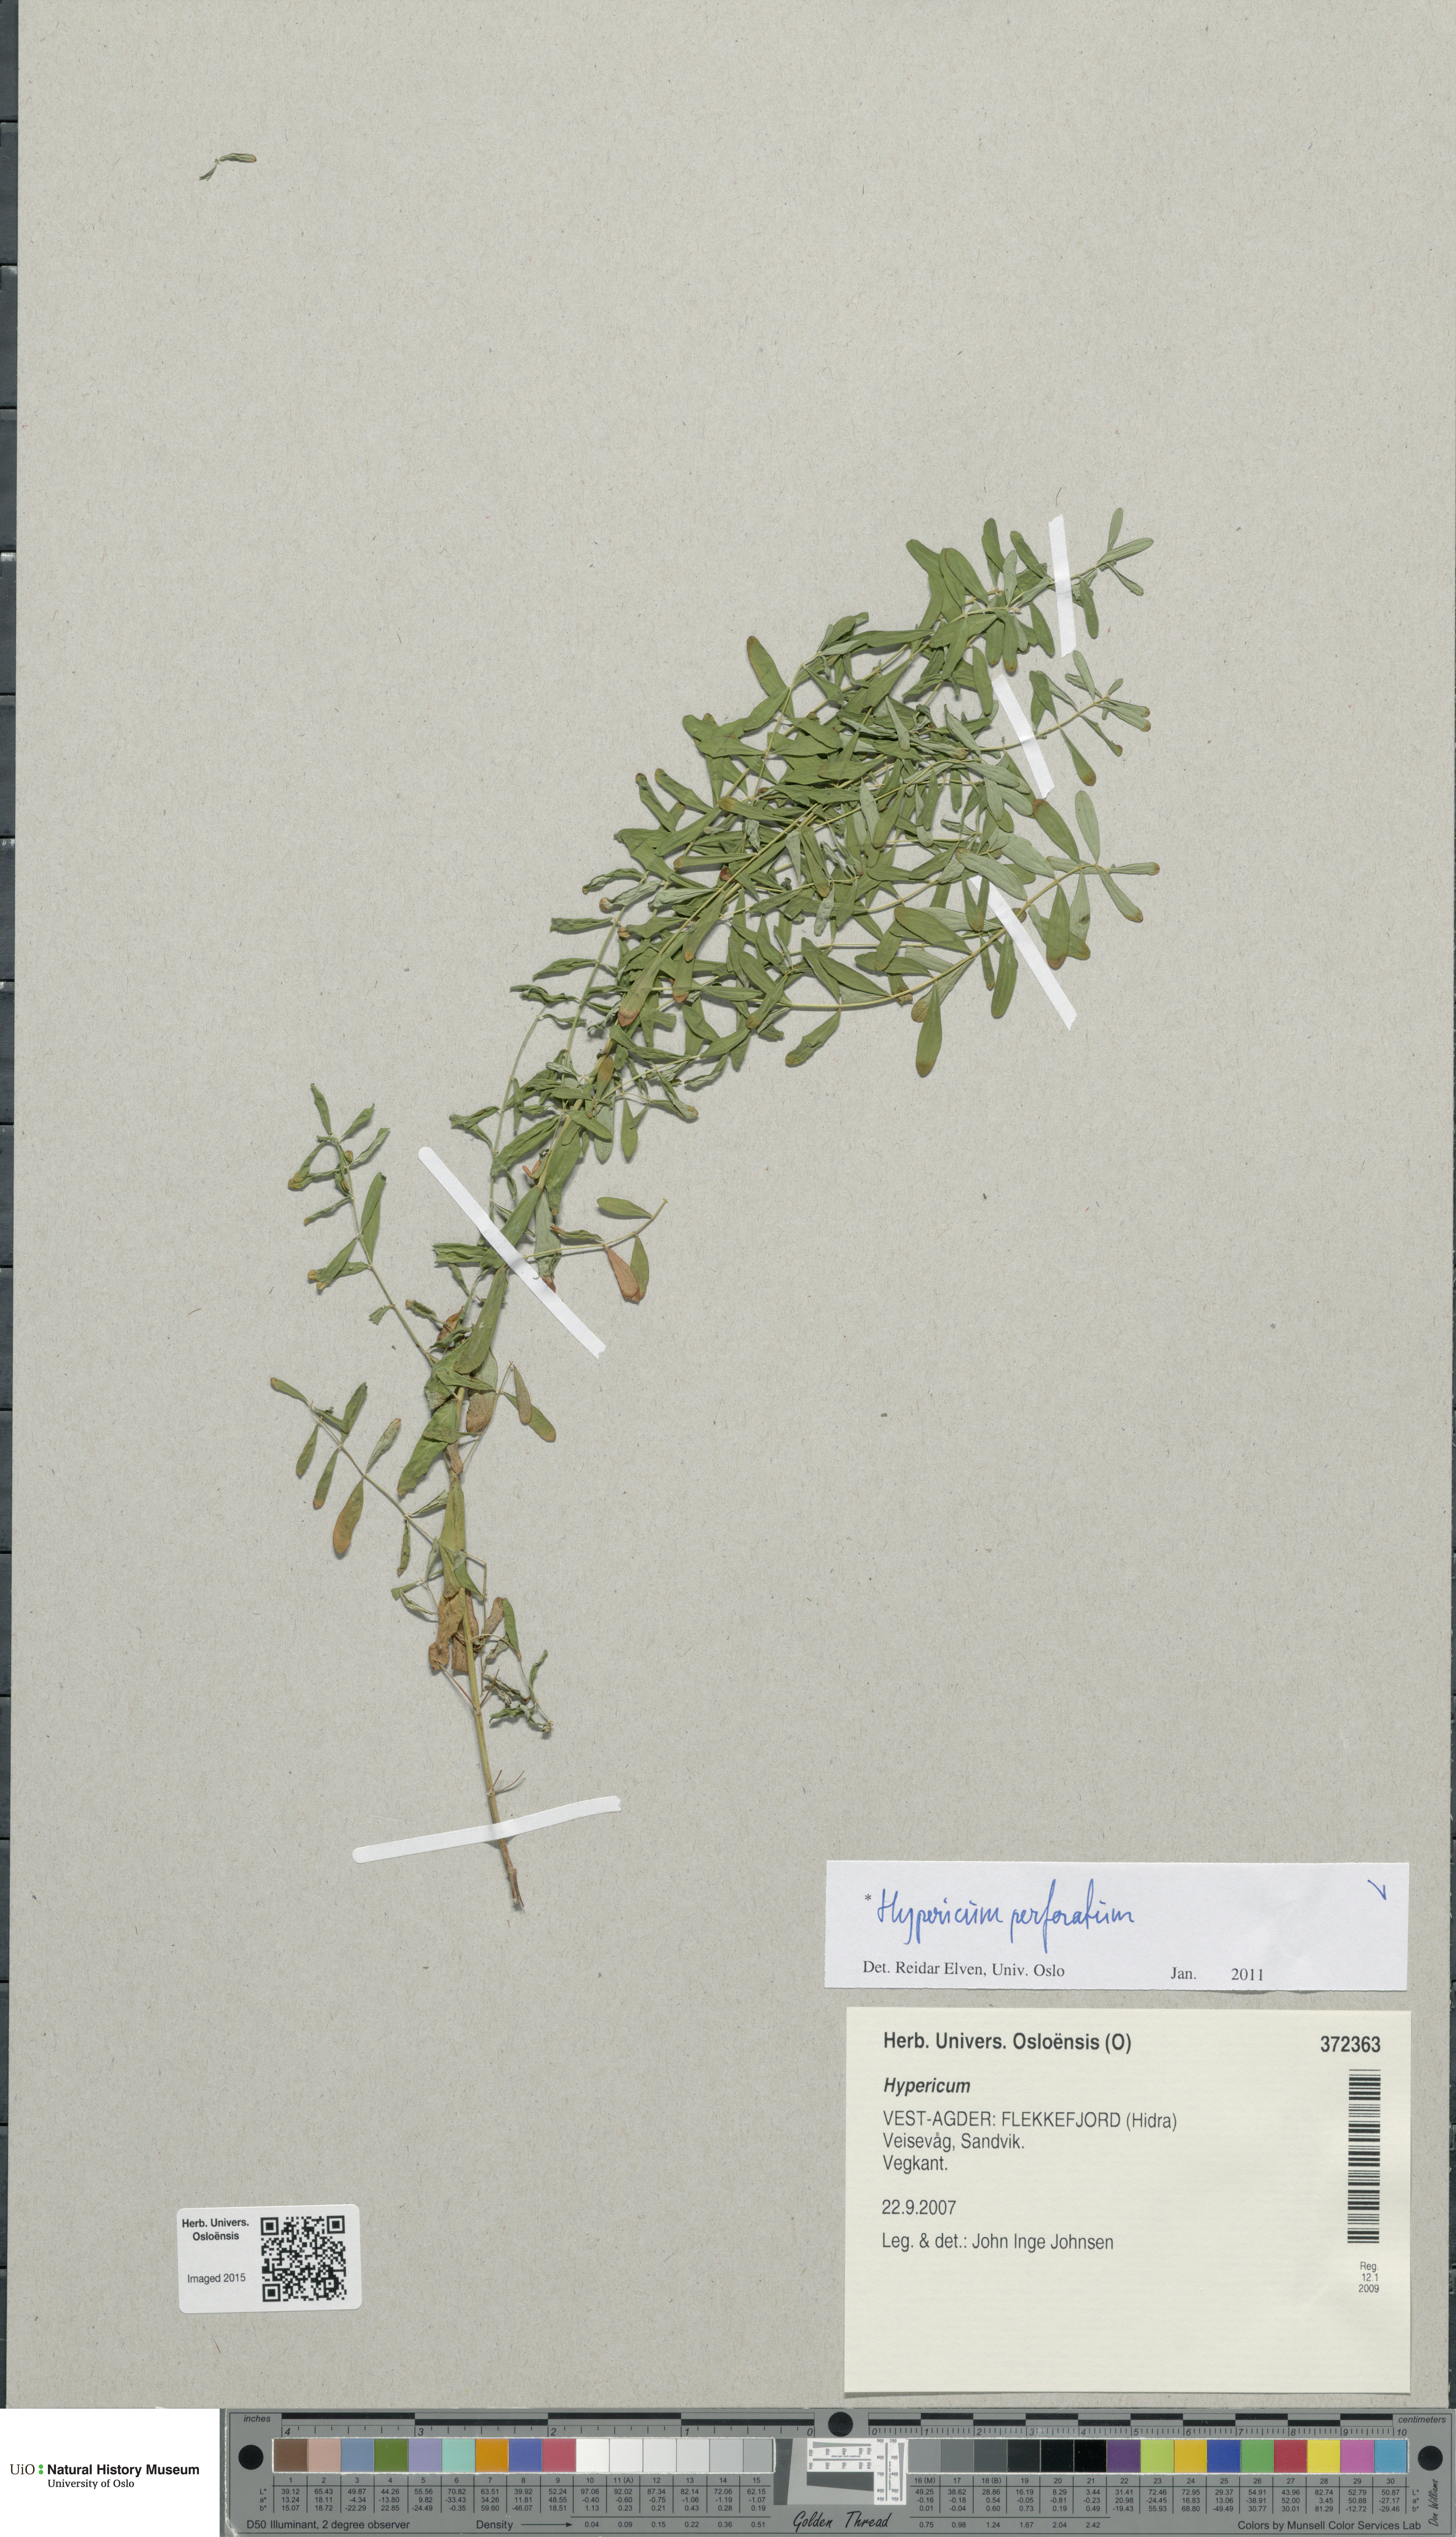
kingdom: Plantae
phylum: Tracheophyta
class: Magnoliopsida
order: Malpighiales
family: Hypericaceae
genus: Hypericum
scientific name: Hypericum perforatum
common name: Common st. johnswort
